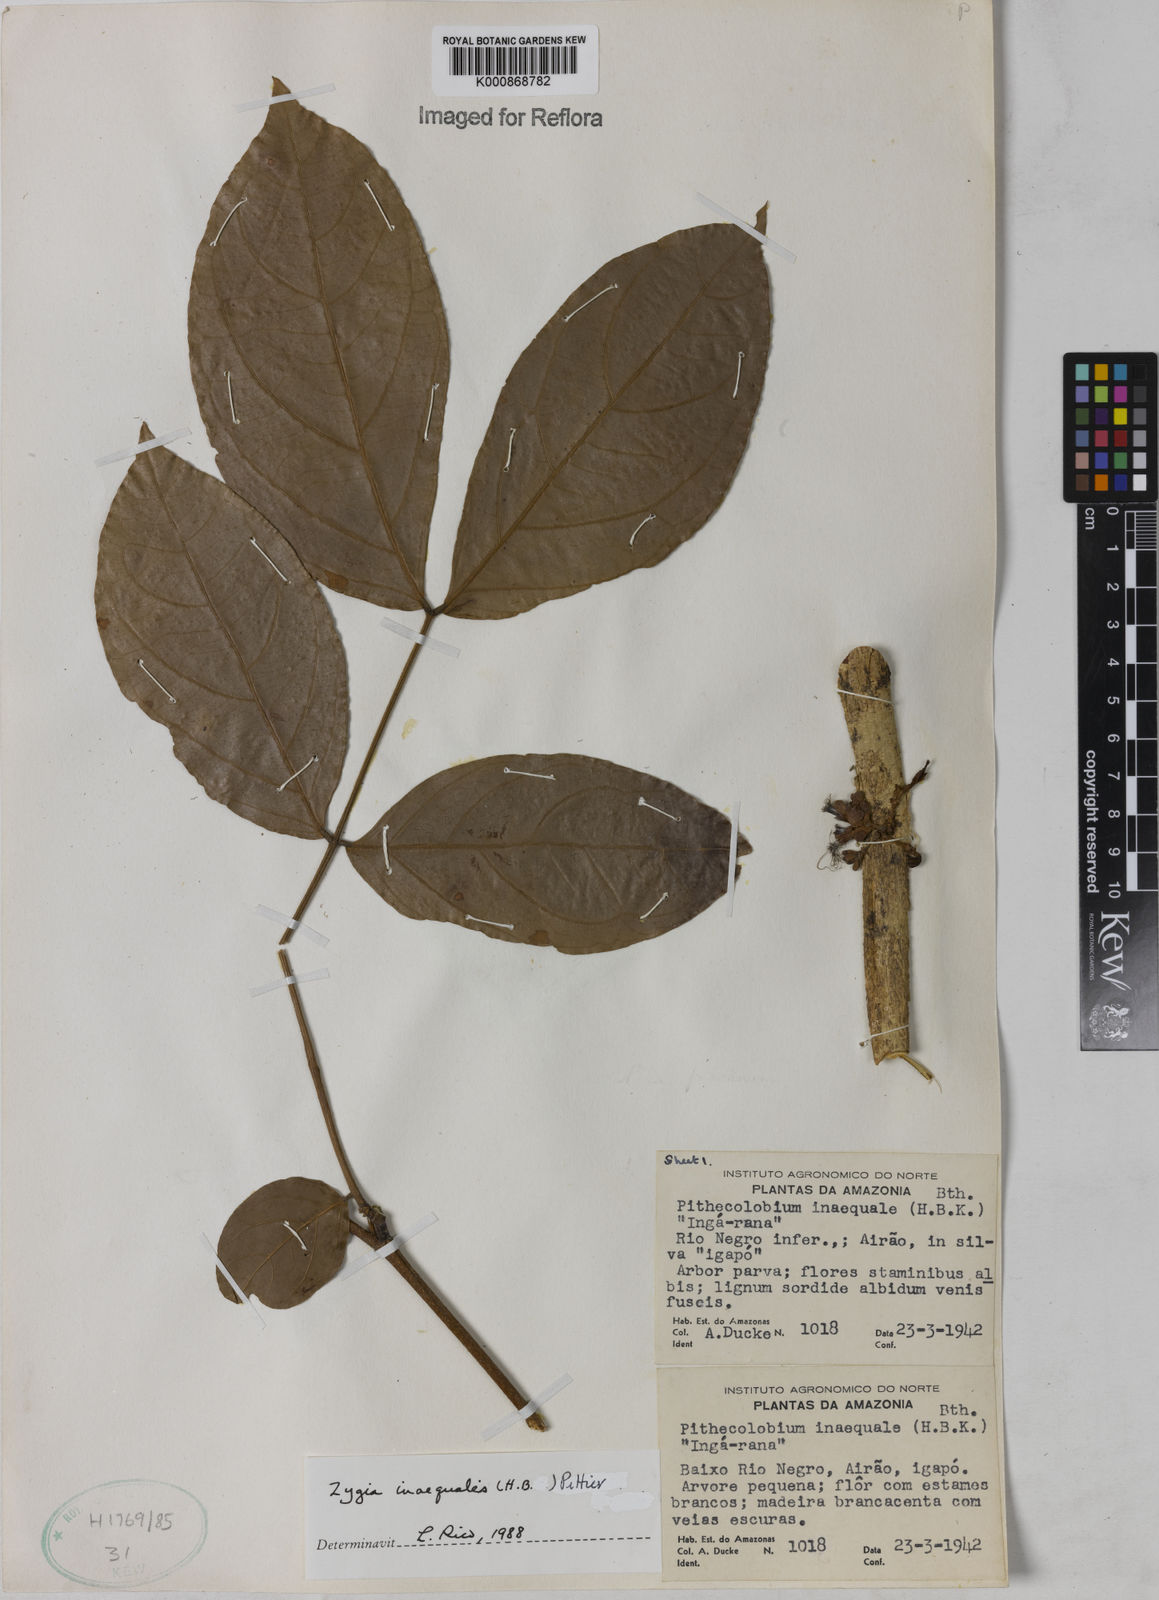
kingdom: Plantae
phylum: Tracheophyta
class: Magnoliopsida
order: Fabales
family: Fabaceae
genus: Zygia
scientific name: Zygia inaequalis
